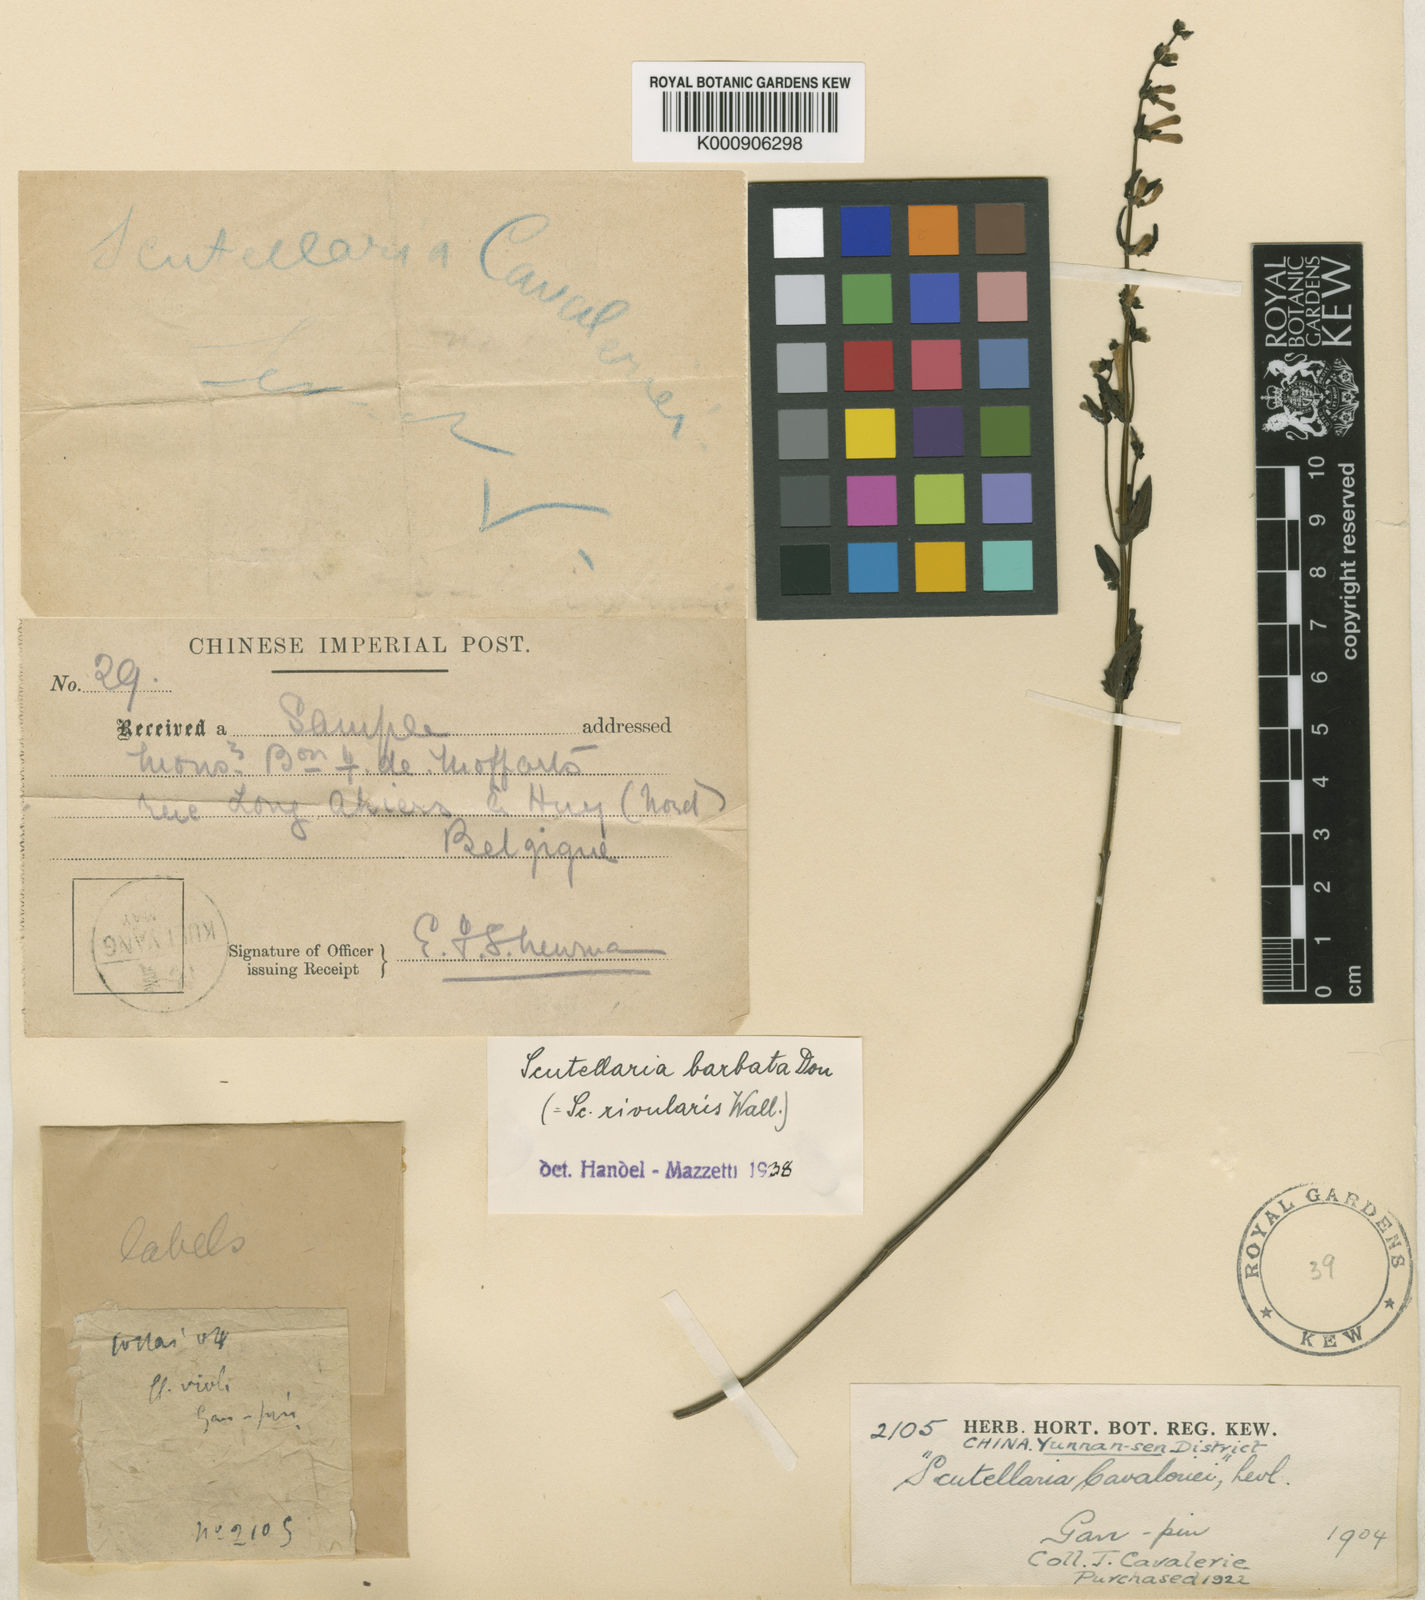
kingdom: Plantae
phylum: Tracheophyta
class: Magnoliopsida
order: Lamiales
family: Lamiaceae
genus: Scutellaria
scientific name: Scutellaria
